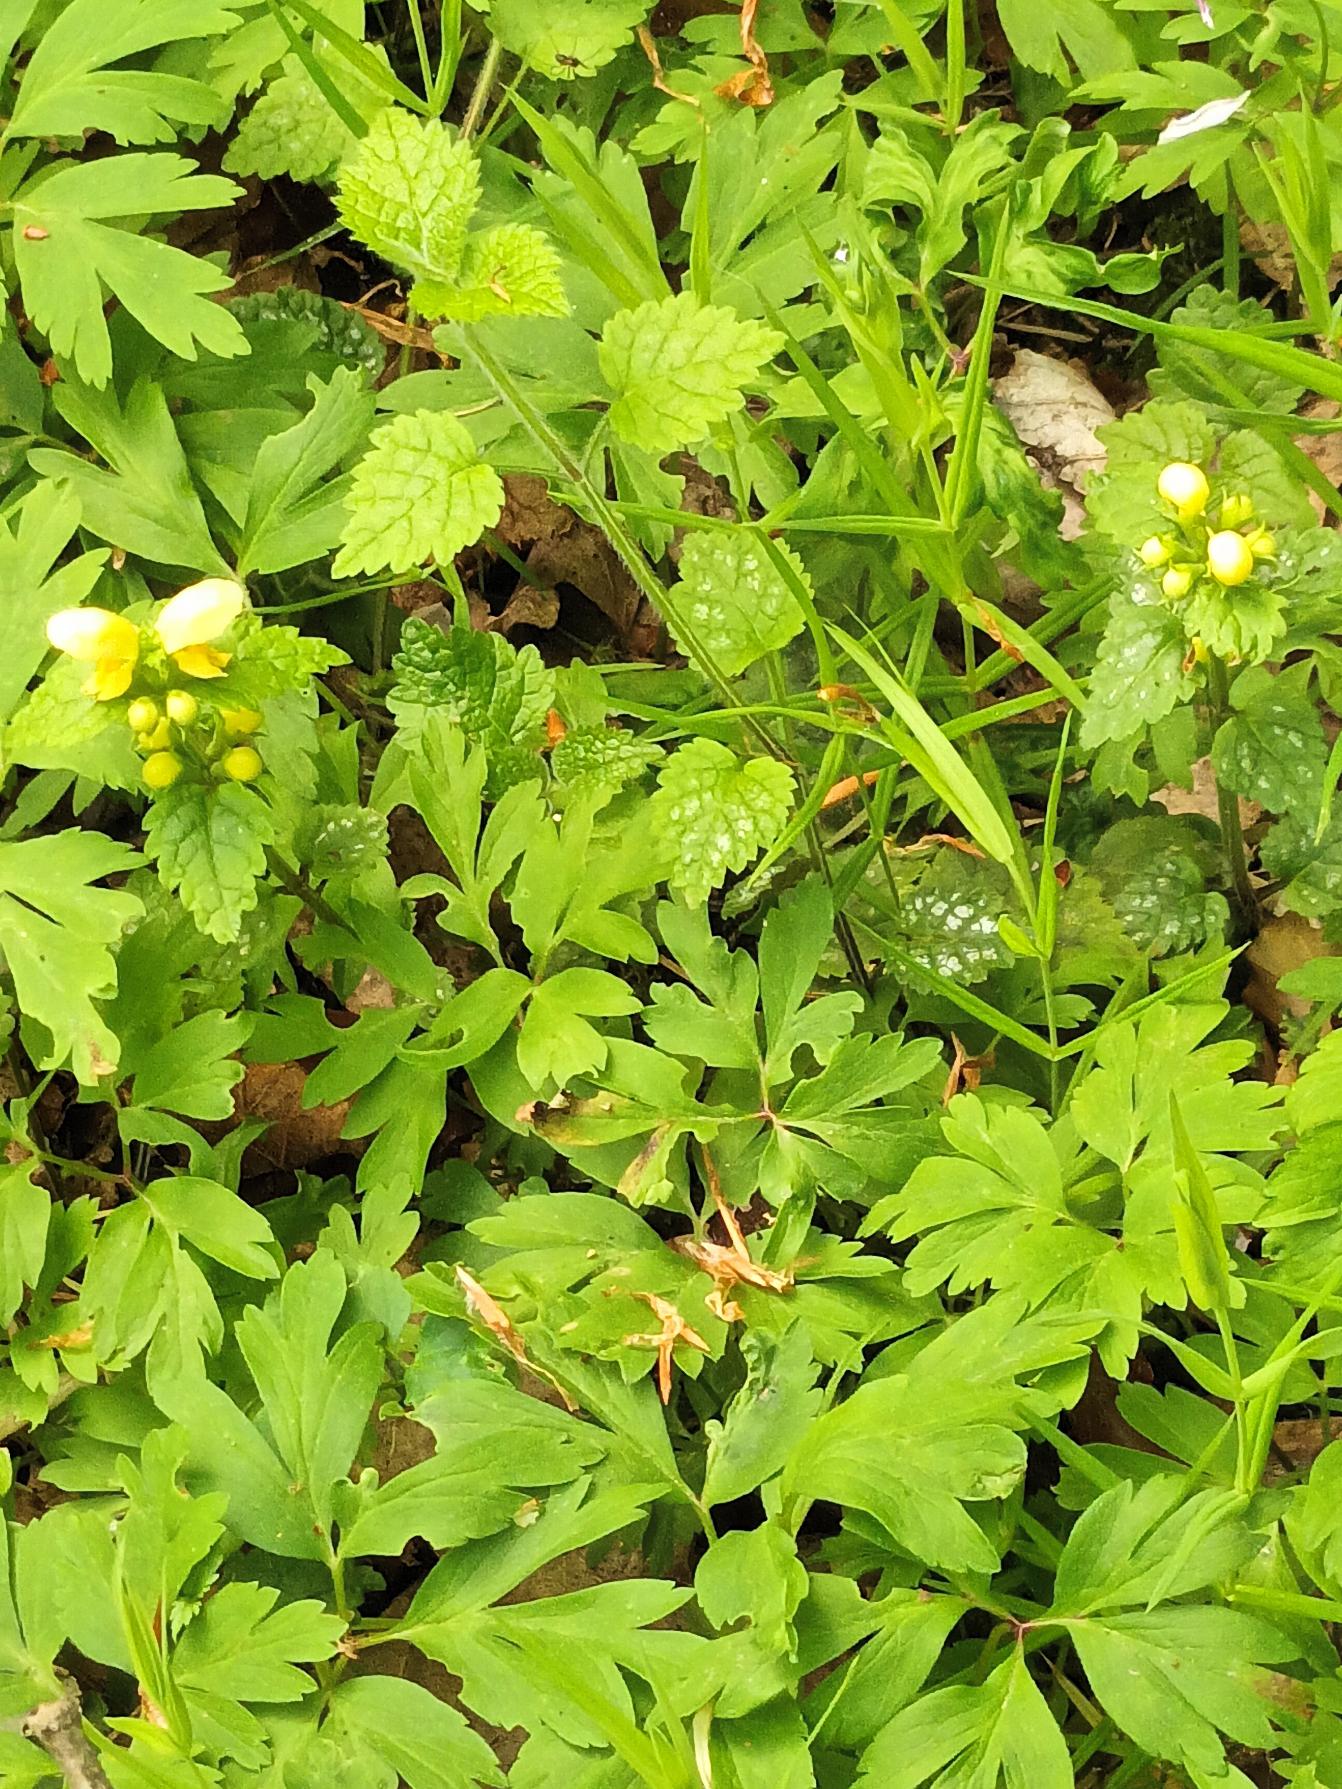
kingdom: Plantae
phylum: Tracheophyta
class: Magnoliopsida
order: Lamiales
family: Lamiaceae
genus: Lamium
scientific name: Lamium galeobdolon
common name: Almindelig guldnælde
